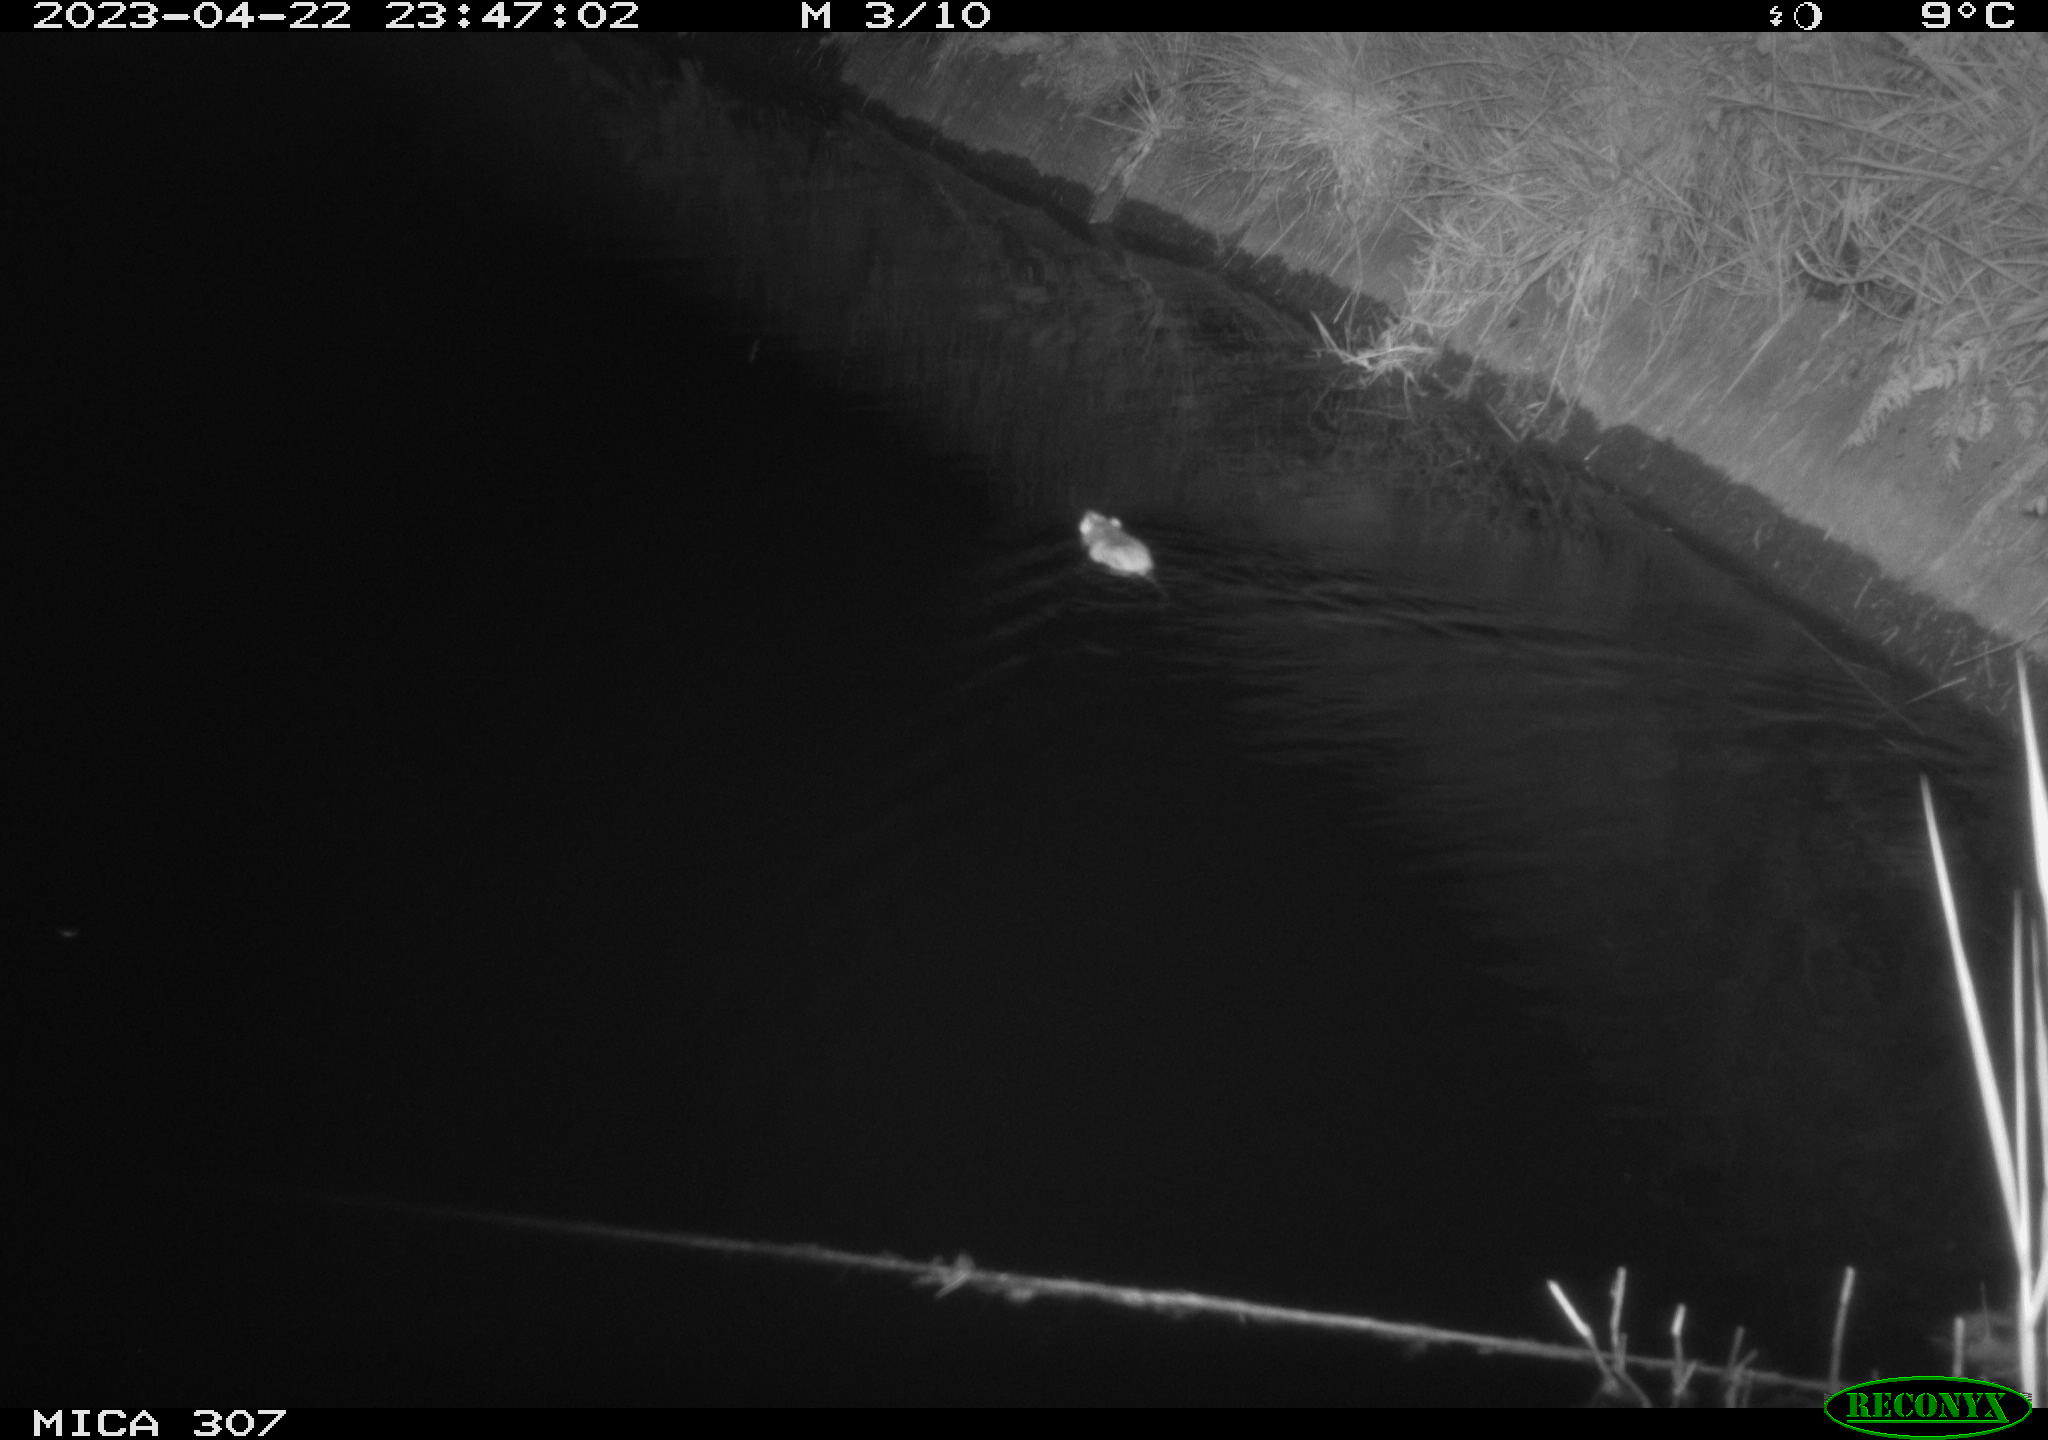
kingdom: Animalia
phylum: Chordata
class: Mammalia
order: Rodentia
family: Muridae
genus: Rattus
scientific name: Rattus norvegicus
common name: Brown rat
